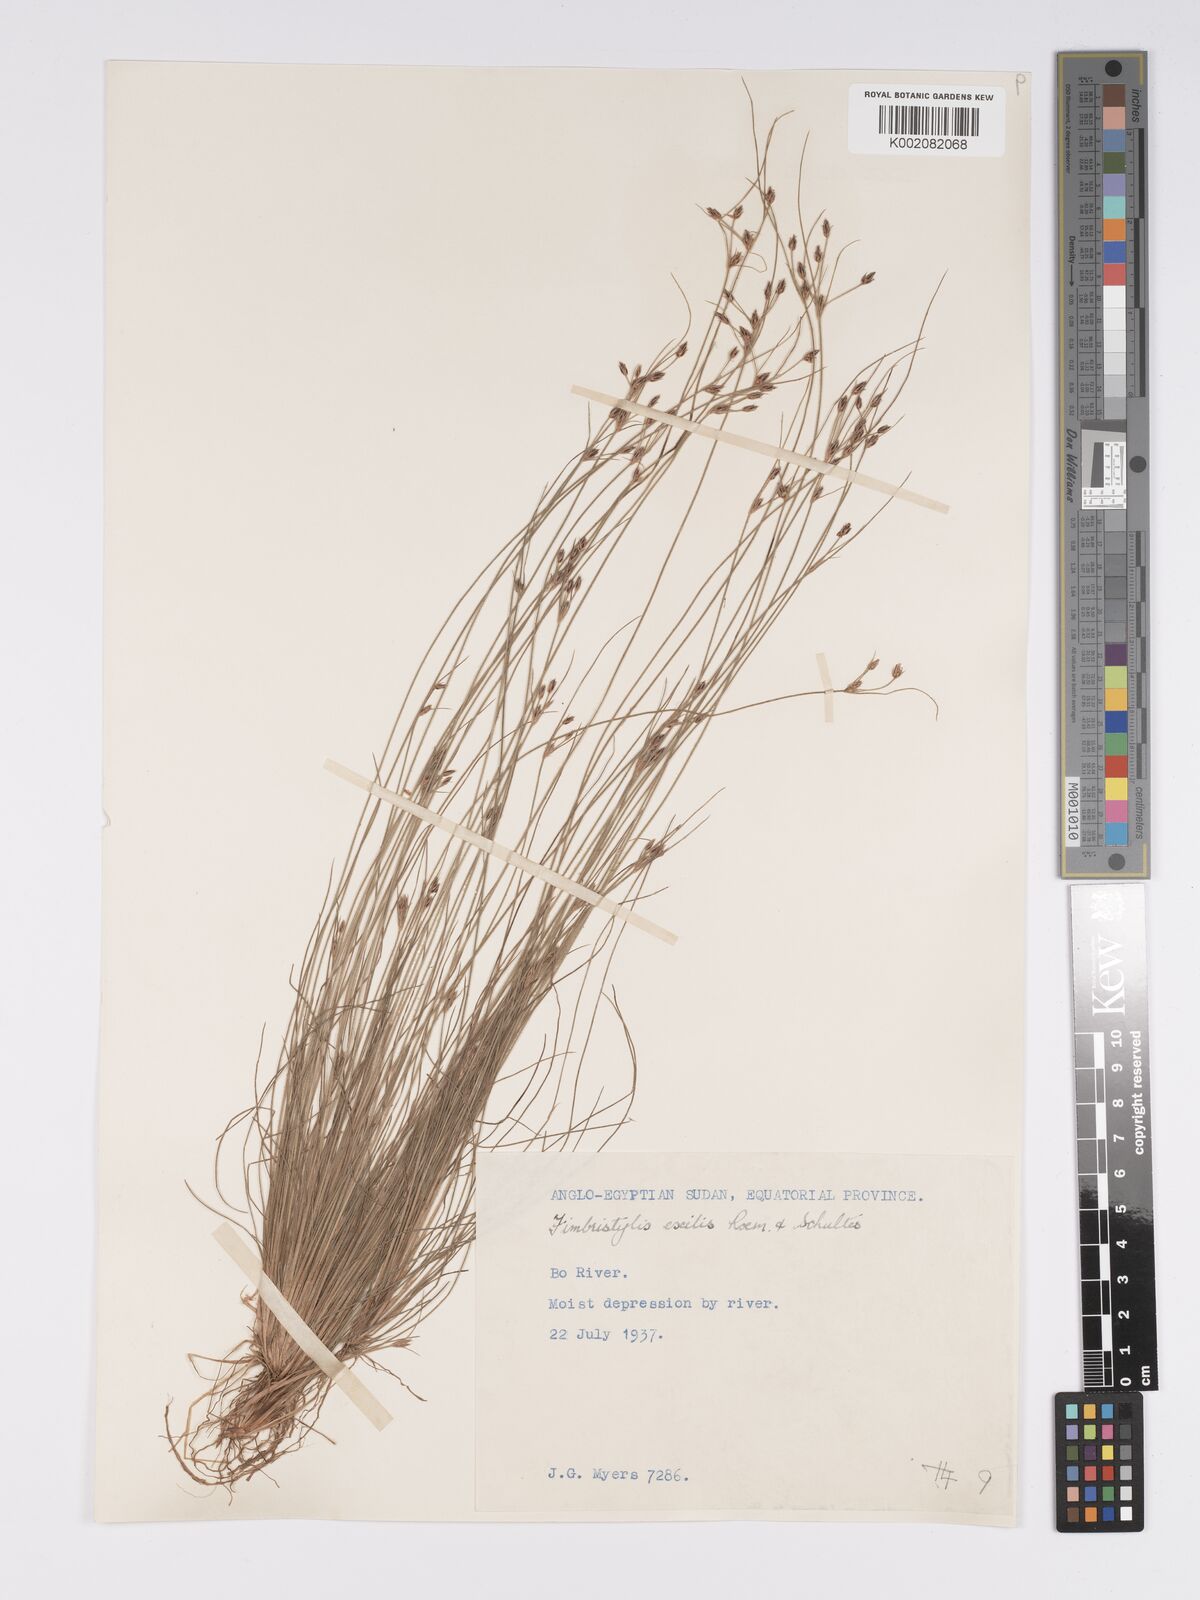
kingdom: Plantae
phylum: Tracheophyta
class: Liliopsida
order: Poales
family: Cyperaceae
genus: Bulbostylis
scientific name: Bulbostylis hispidula
